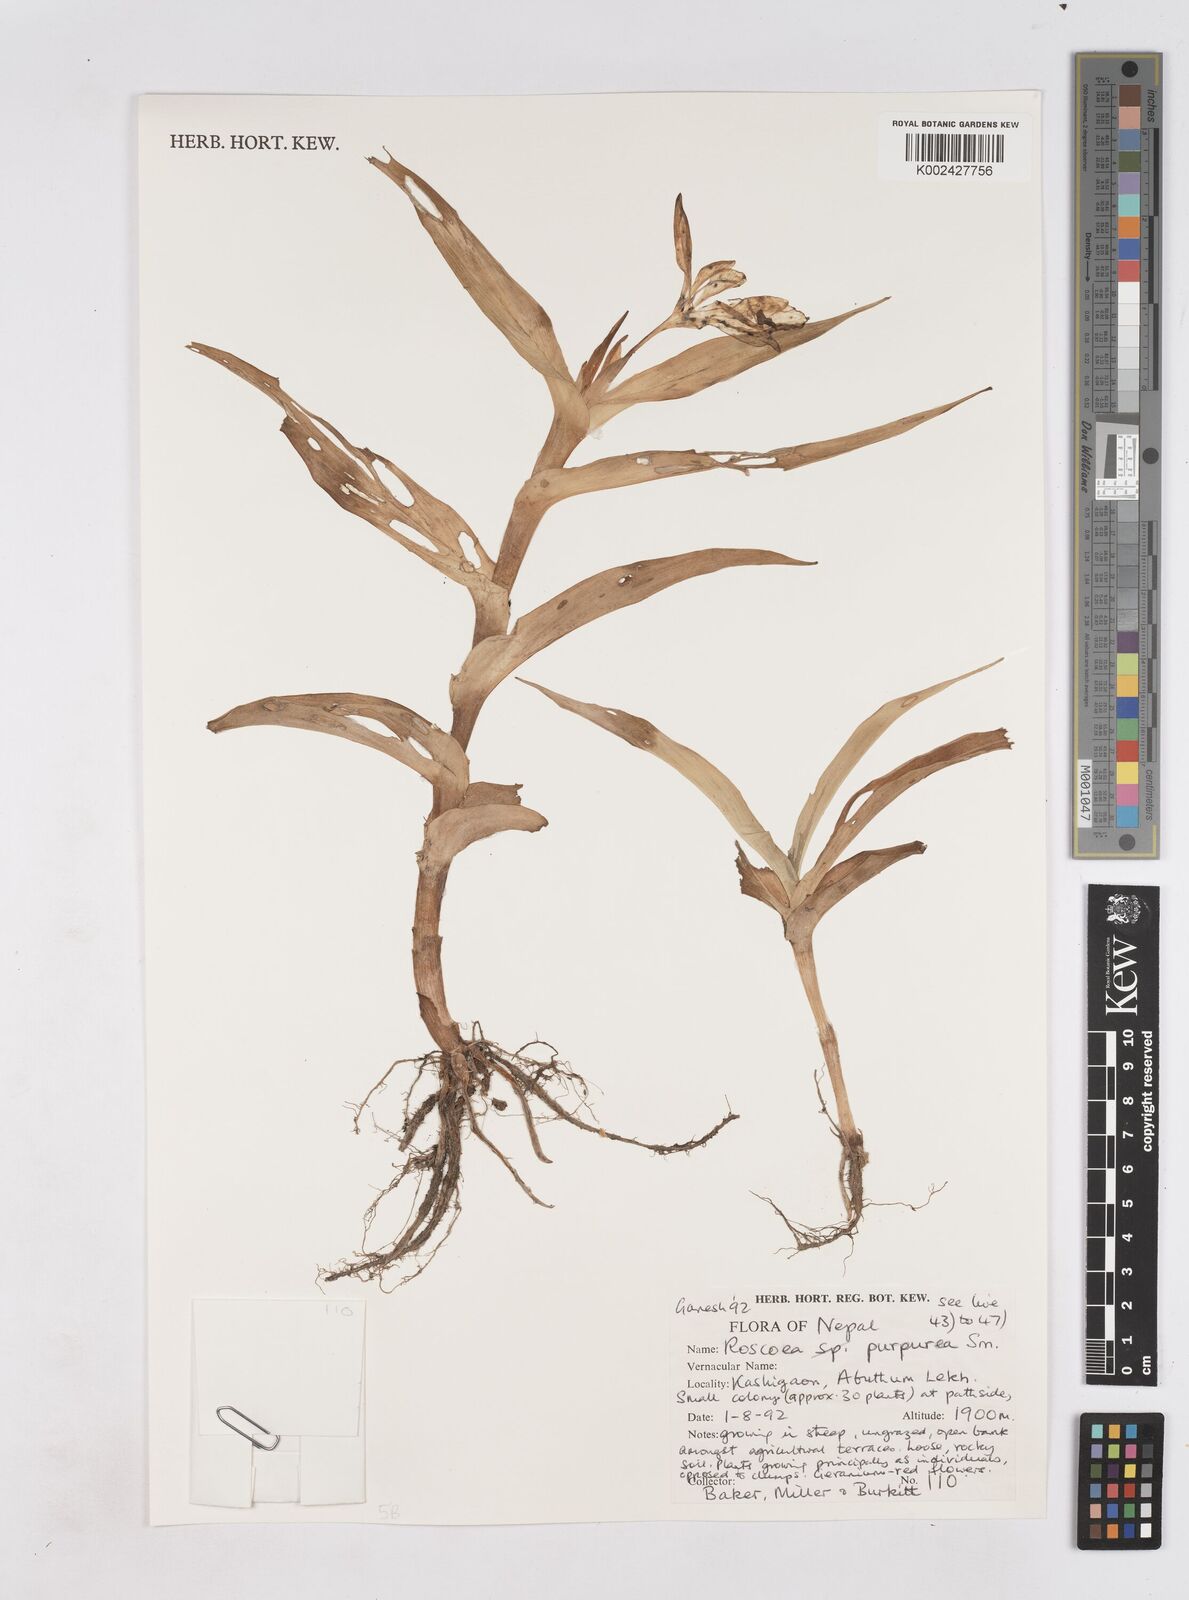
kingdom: Plantae
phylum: Tracheophyta
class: Liliopsida
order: Zingiberales
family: Zingiberaceae
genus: Roscoea
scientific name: Roscoea purpurea
